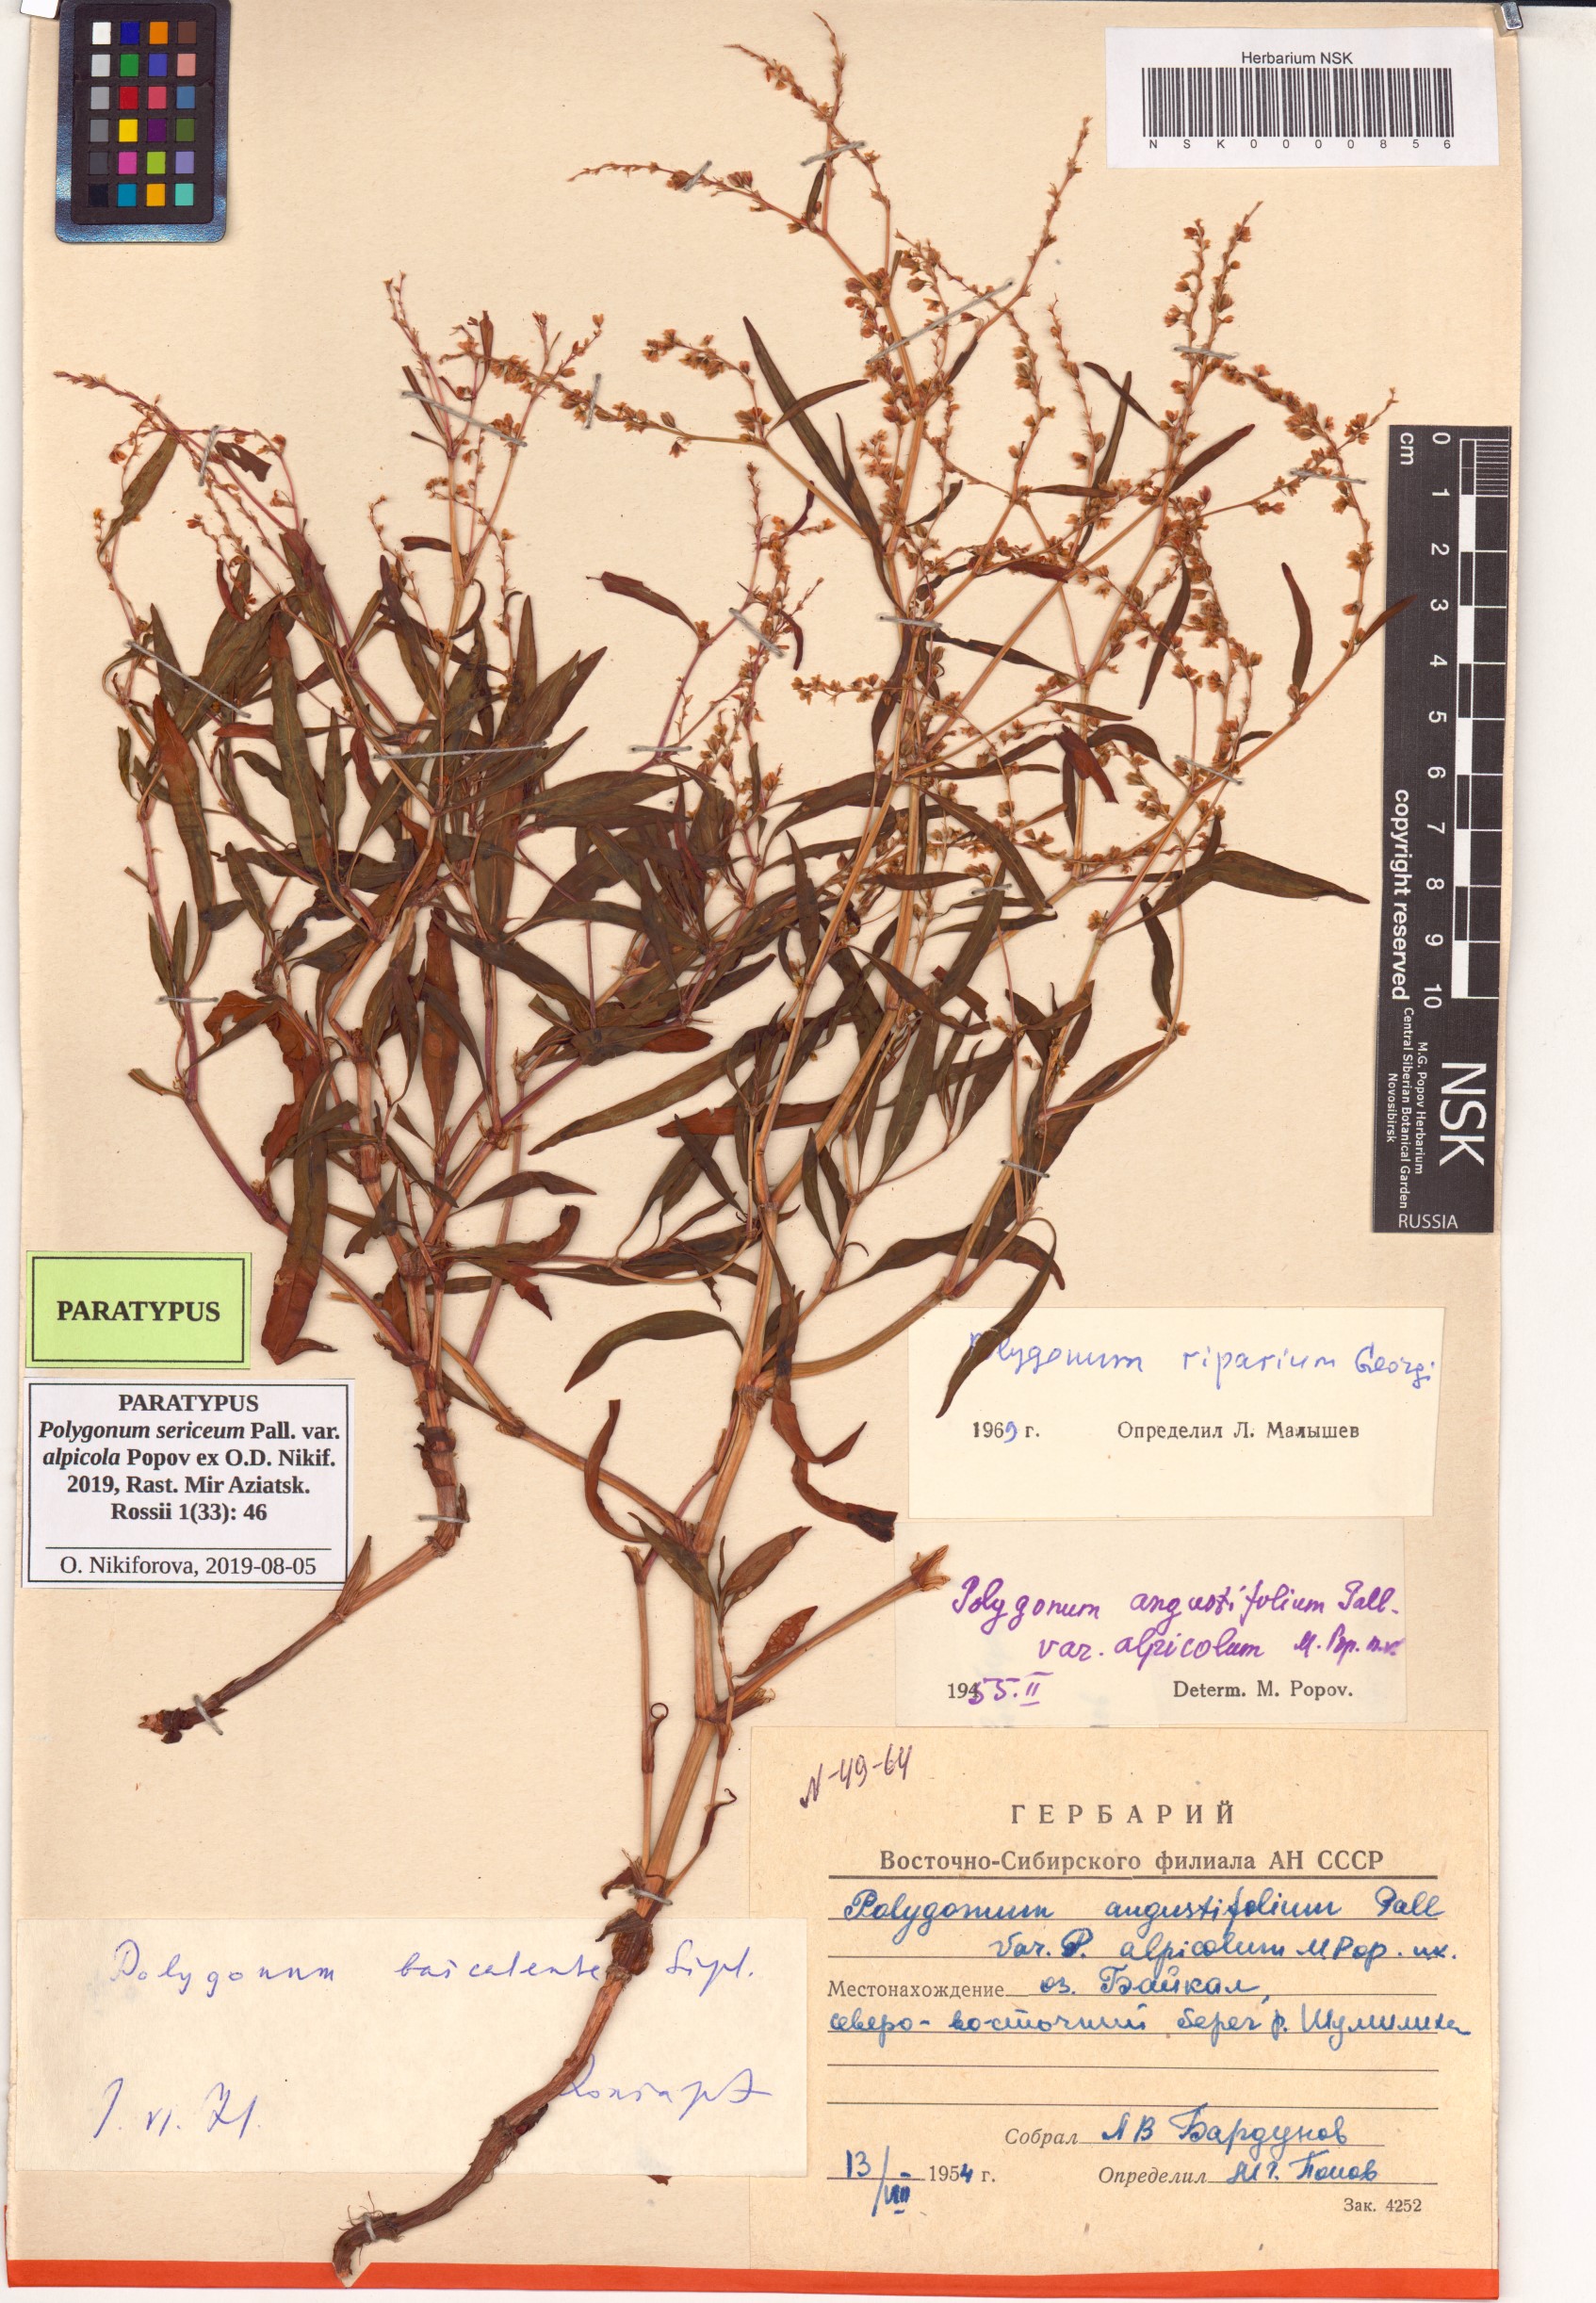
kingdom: Plantae
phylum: Tracheophyta
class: Magnoliopsida
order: Caryophyllales
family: Polygonaceae
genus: Polygonum
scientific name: Polygonum sericeum
